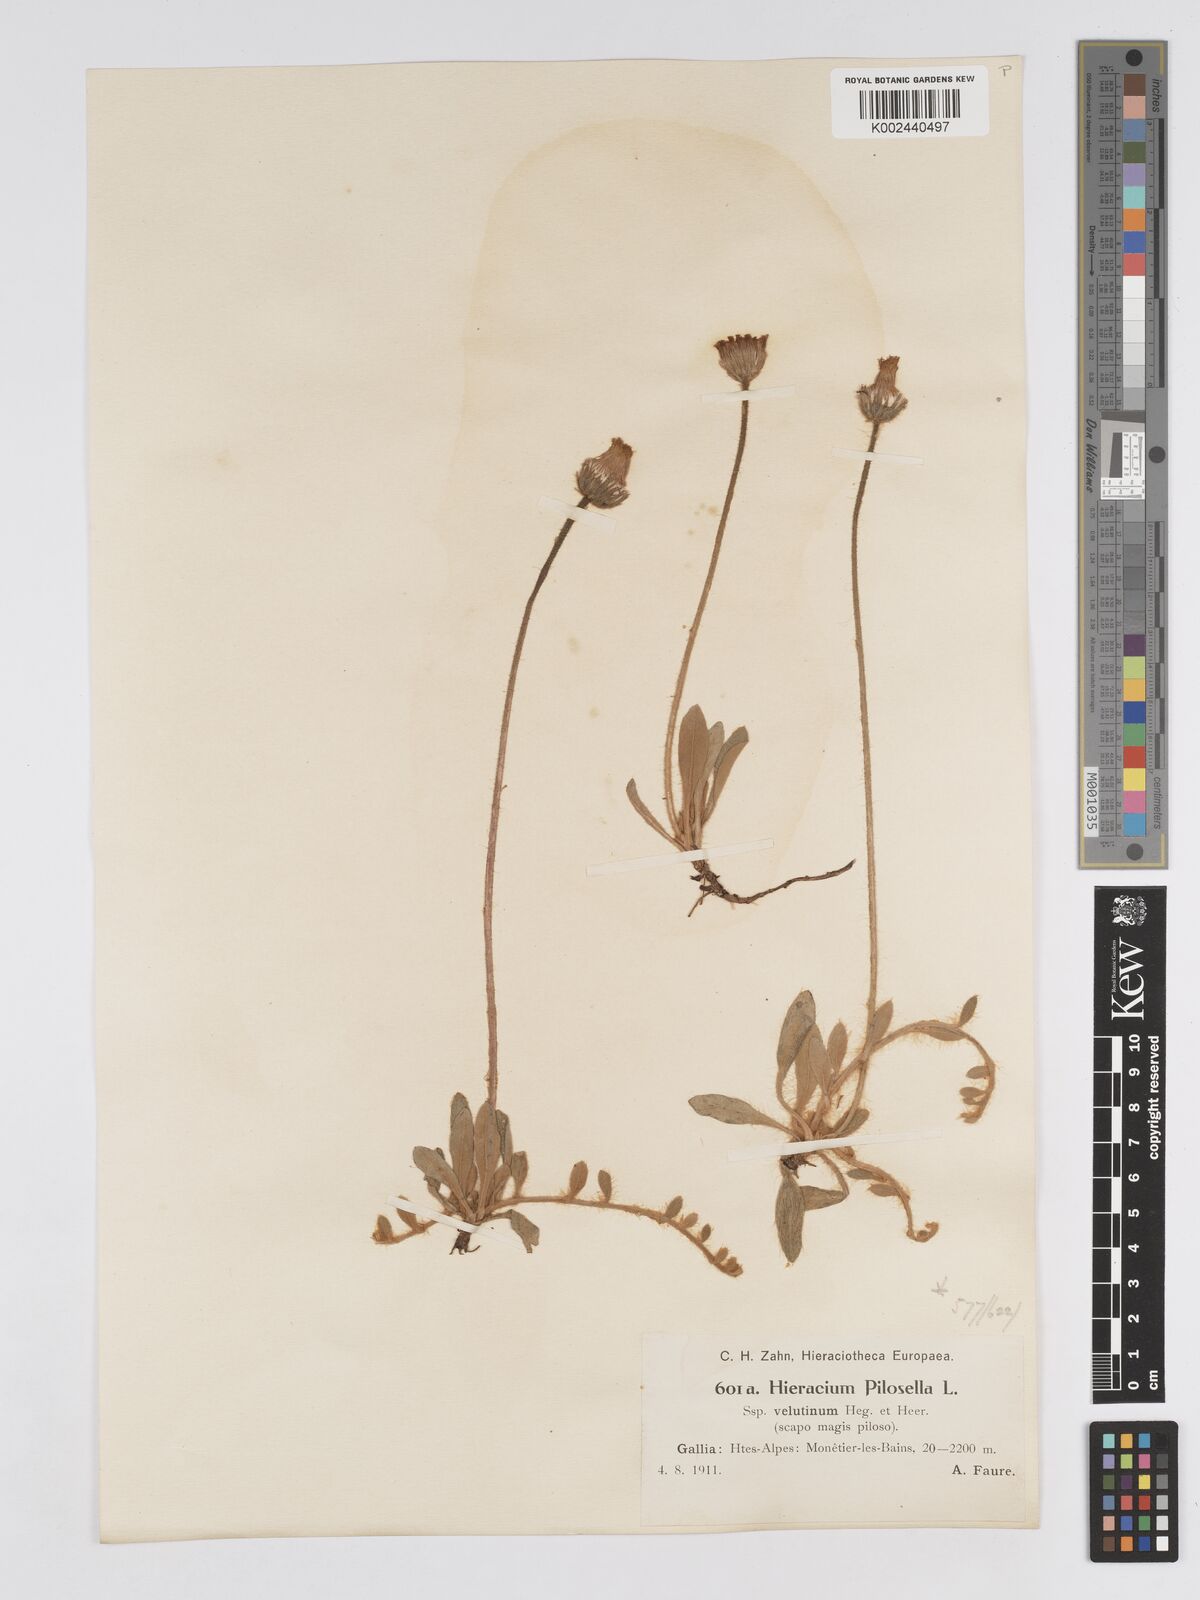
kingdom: Plantae
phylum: Tracheophyta
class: Magnoliopsida
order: Asterales
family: Asteraceae
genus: Pilosella
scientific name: Pilosella velutina
